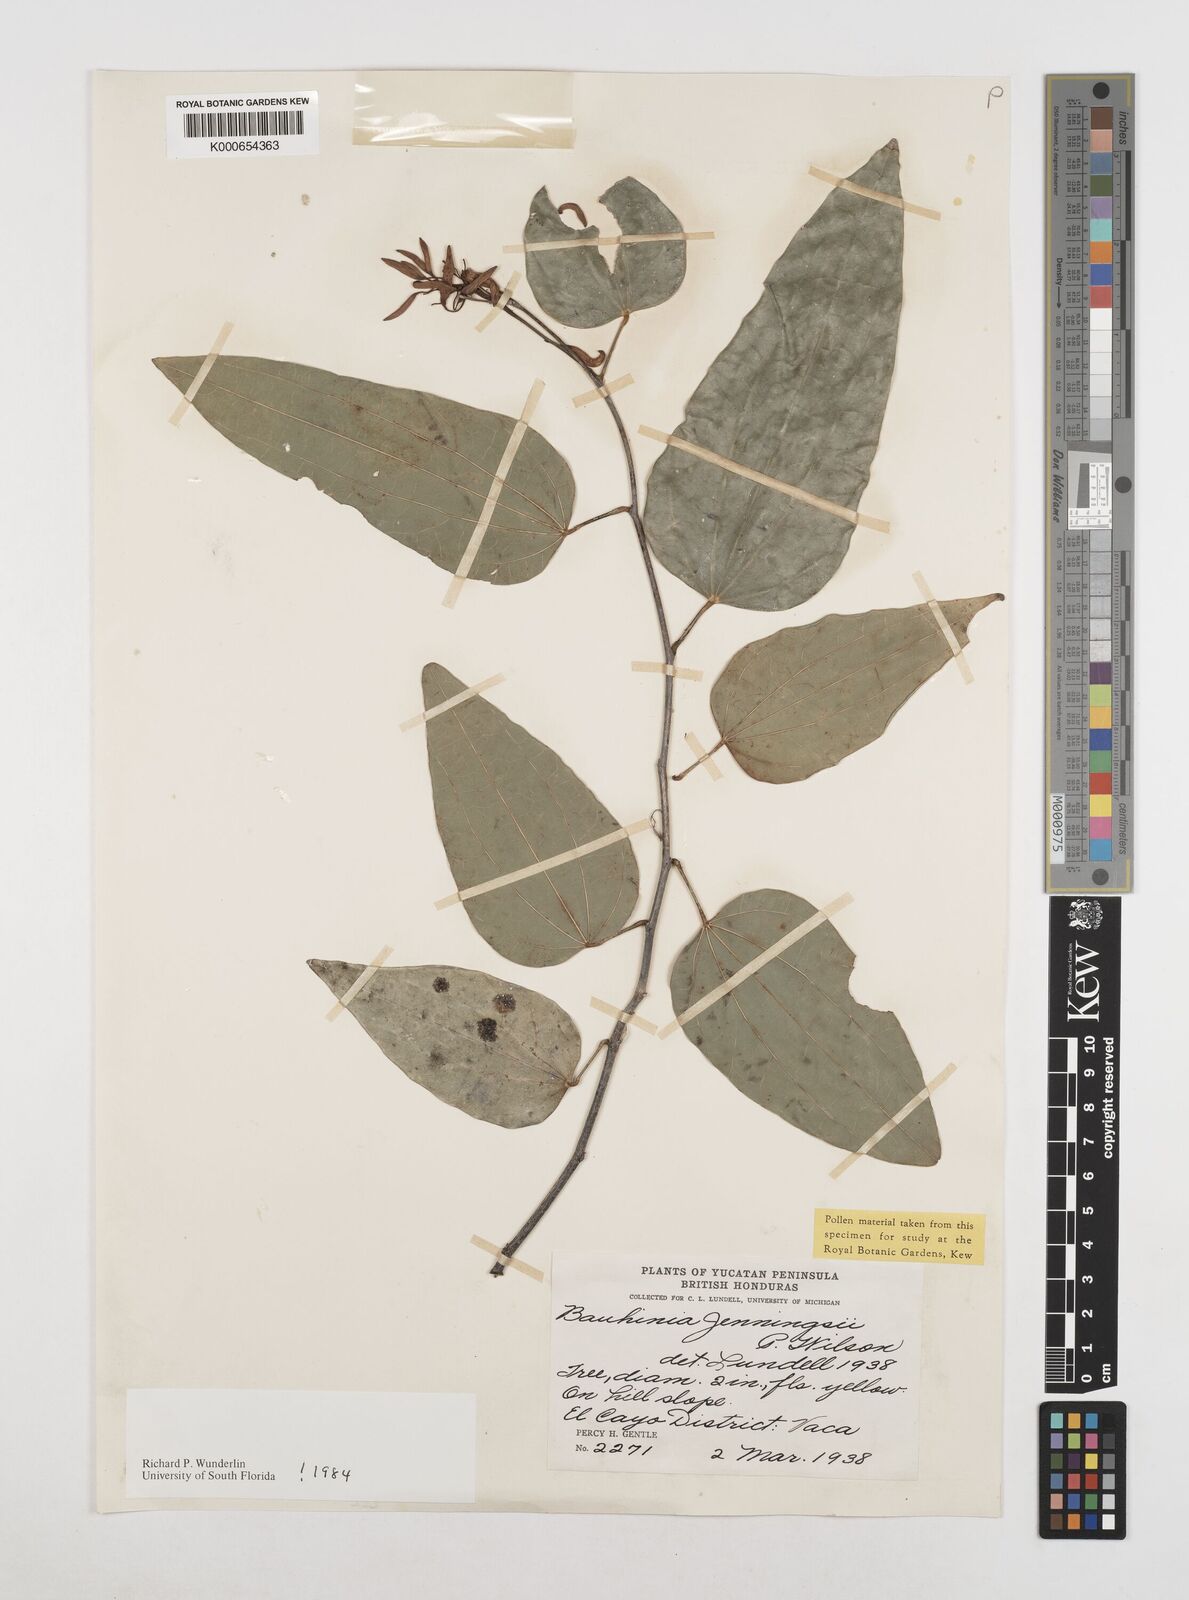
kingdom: Plantae
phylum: Tracheophyta
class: Magnoliopsida
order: Fabales
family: Fabaceae
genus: Bauhinia
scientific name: Bauhinia jenningsii
